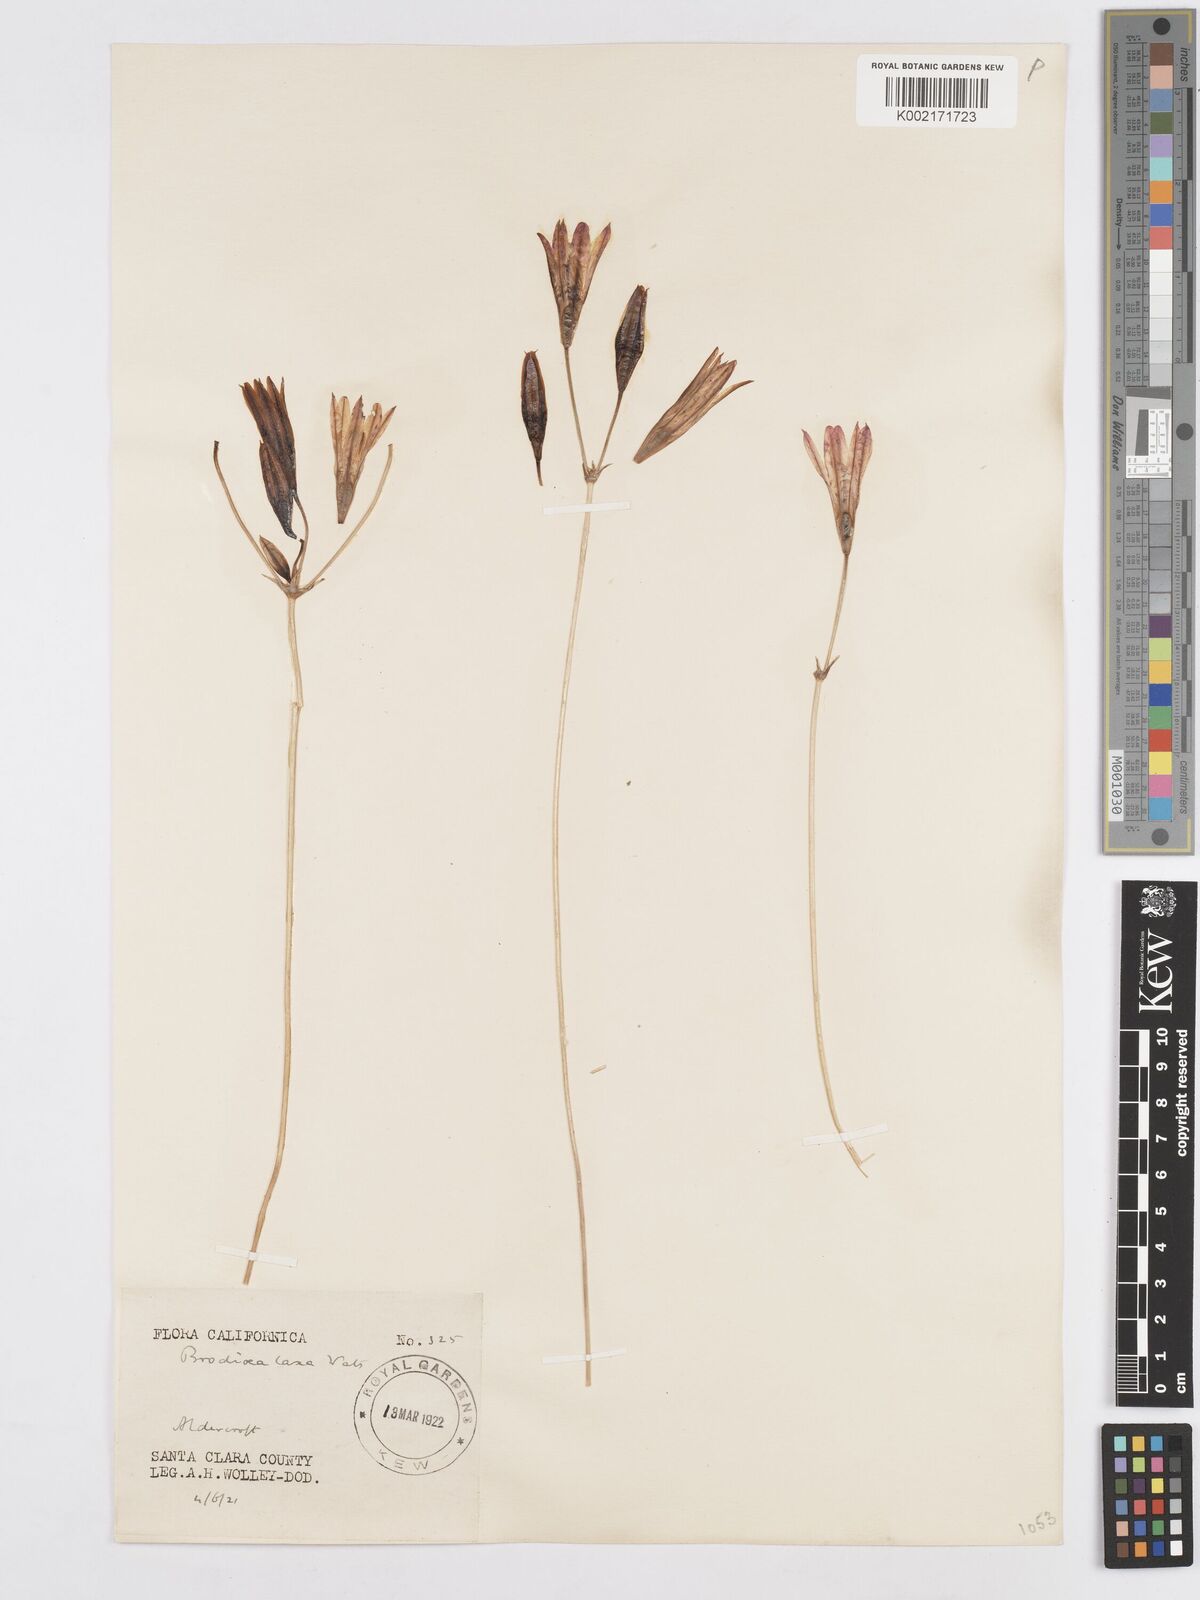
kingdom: Plantae
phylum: Tracheophyta
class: Liliopsida
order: Asparagales
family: Asparagaceae
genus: Triteleia
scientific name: Triteleia laxa
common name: Triplet-lily
